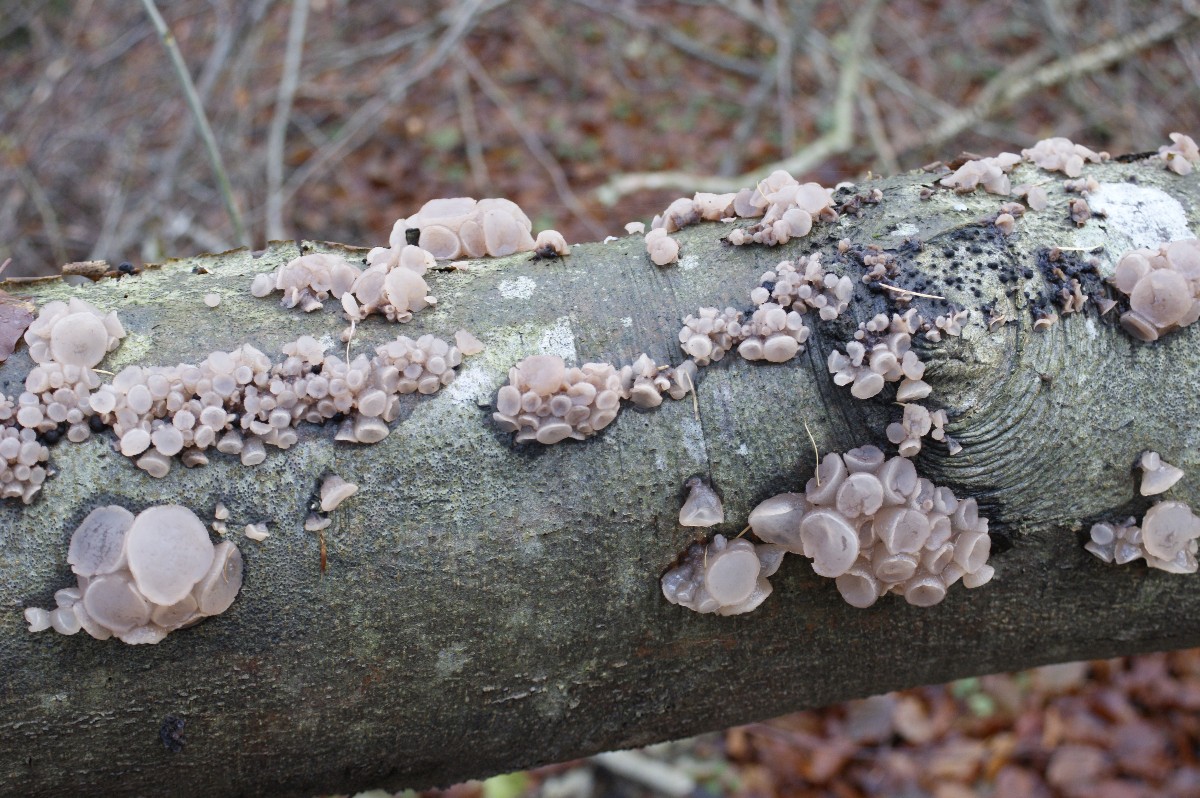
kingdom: Fungi
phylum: Ascomycota
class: Leotiomycetes
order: Helotiales
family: Gelatinodiscaceae
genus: Neobulgaria
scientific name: Neobulgaria pura
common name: bleg bævreskive
